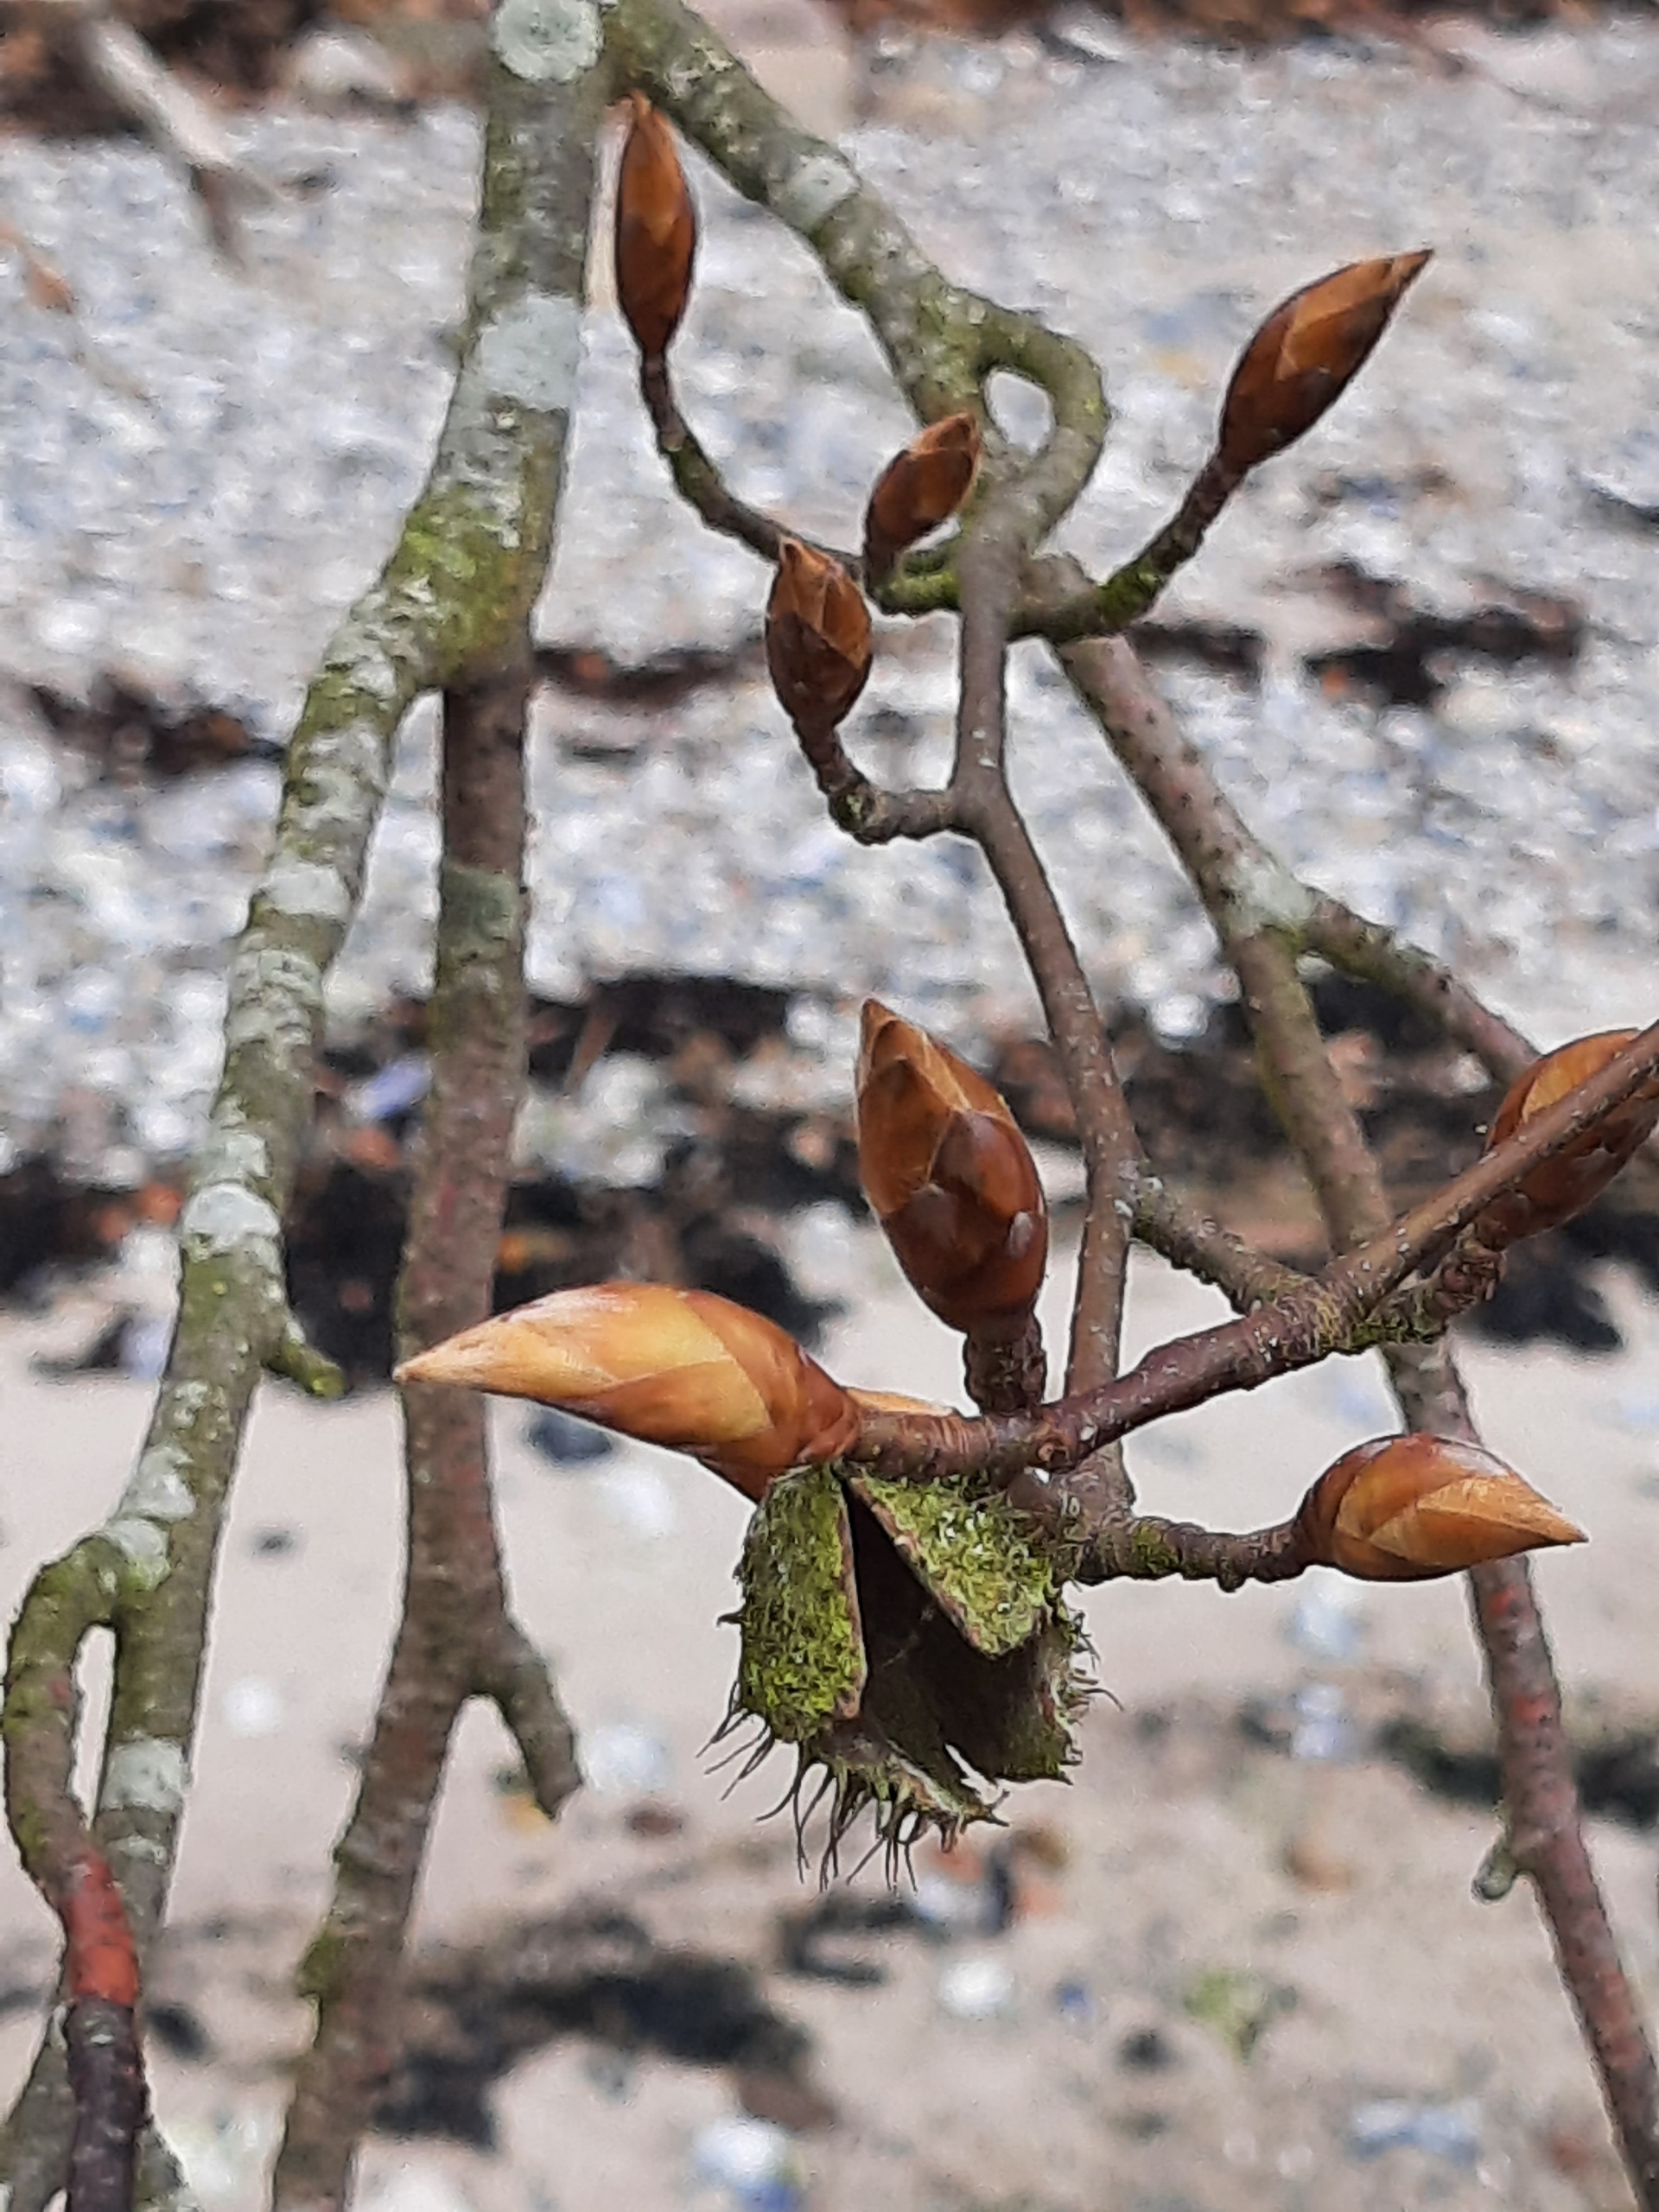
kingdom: Plantae
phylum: Tracheophyta
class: Magnoliopsida
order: Fagales
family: Fagaceae
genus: Fagus
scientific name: Fagus sylvatica
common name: Bøg
